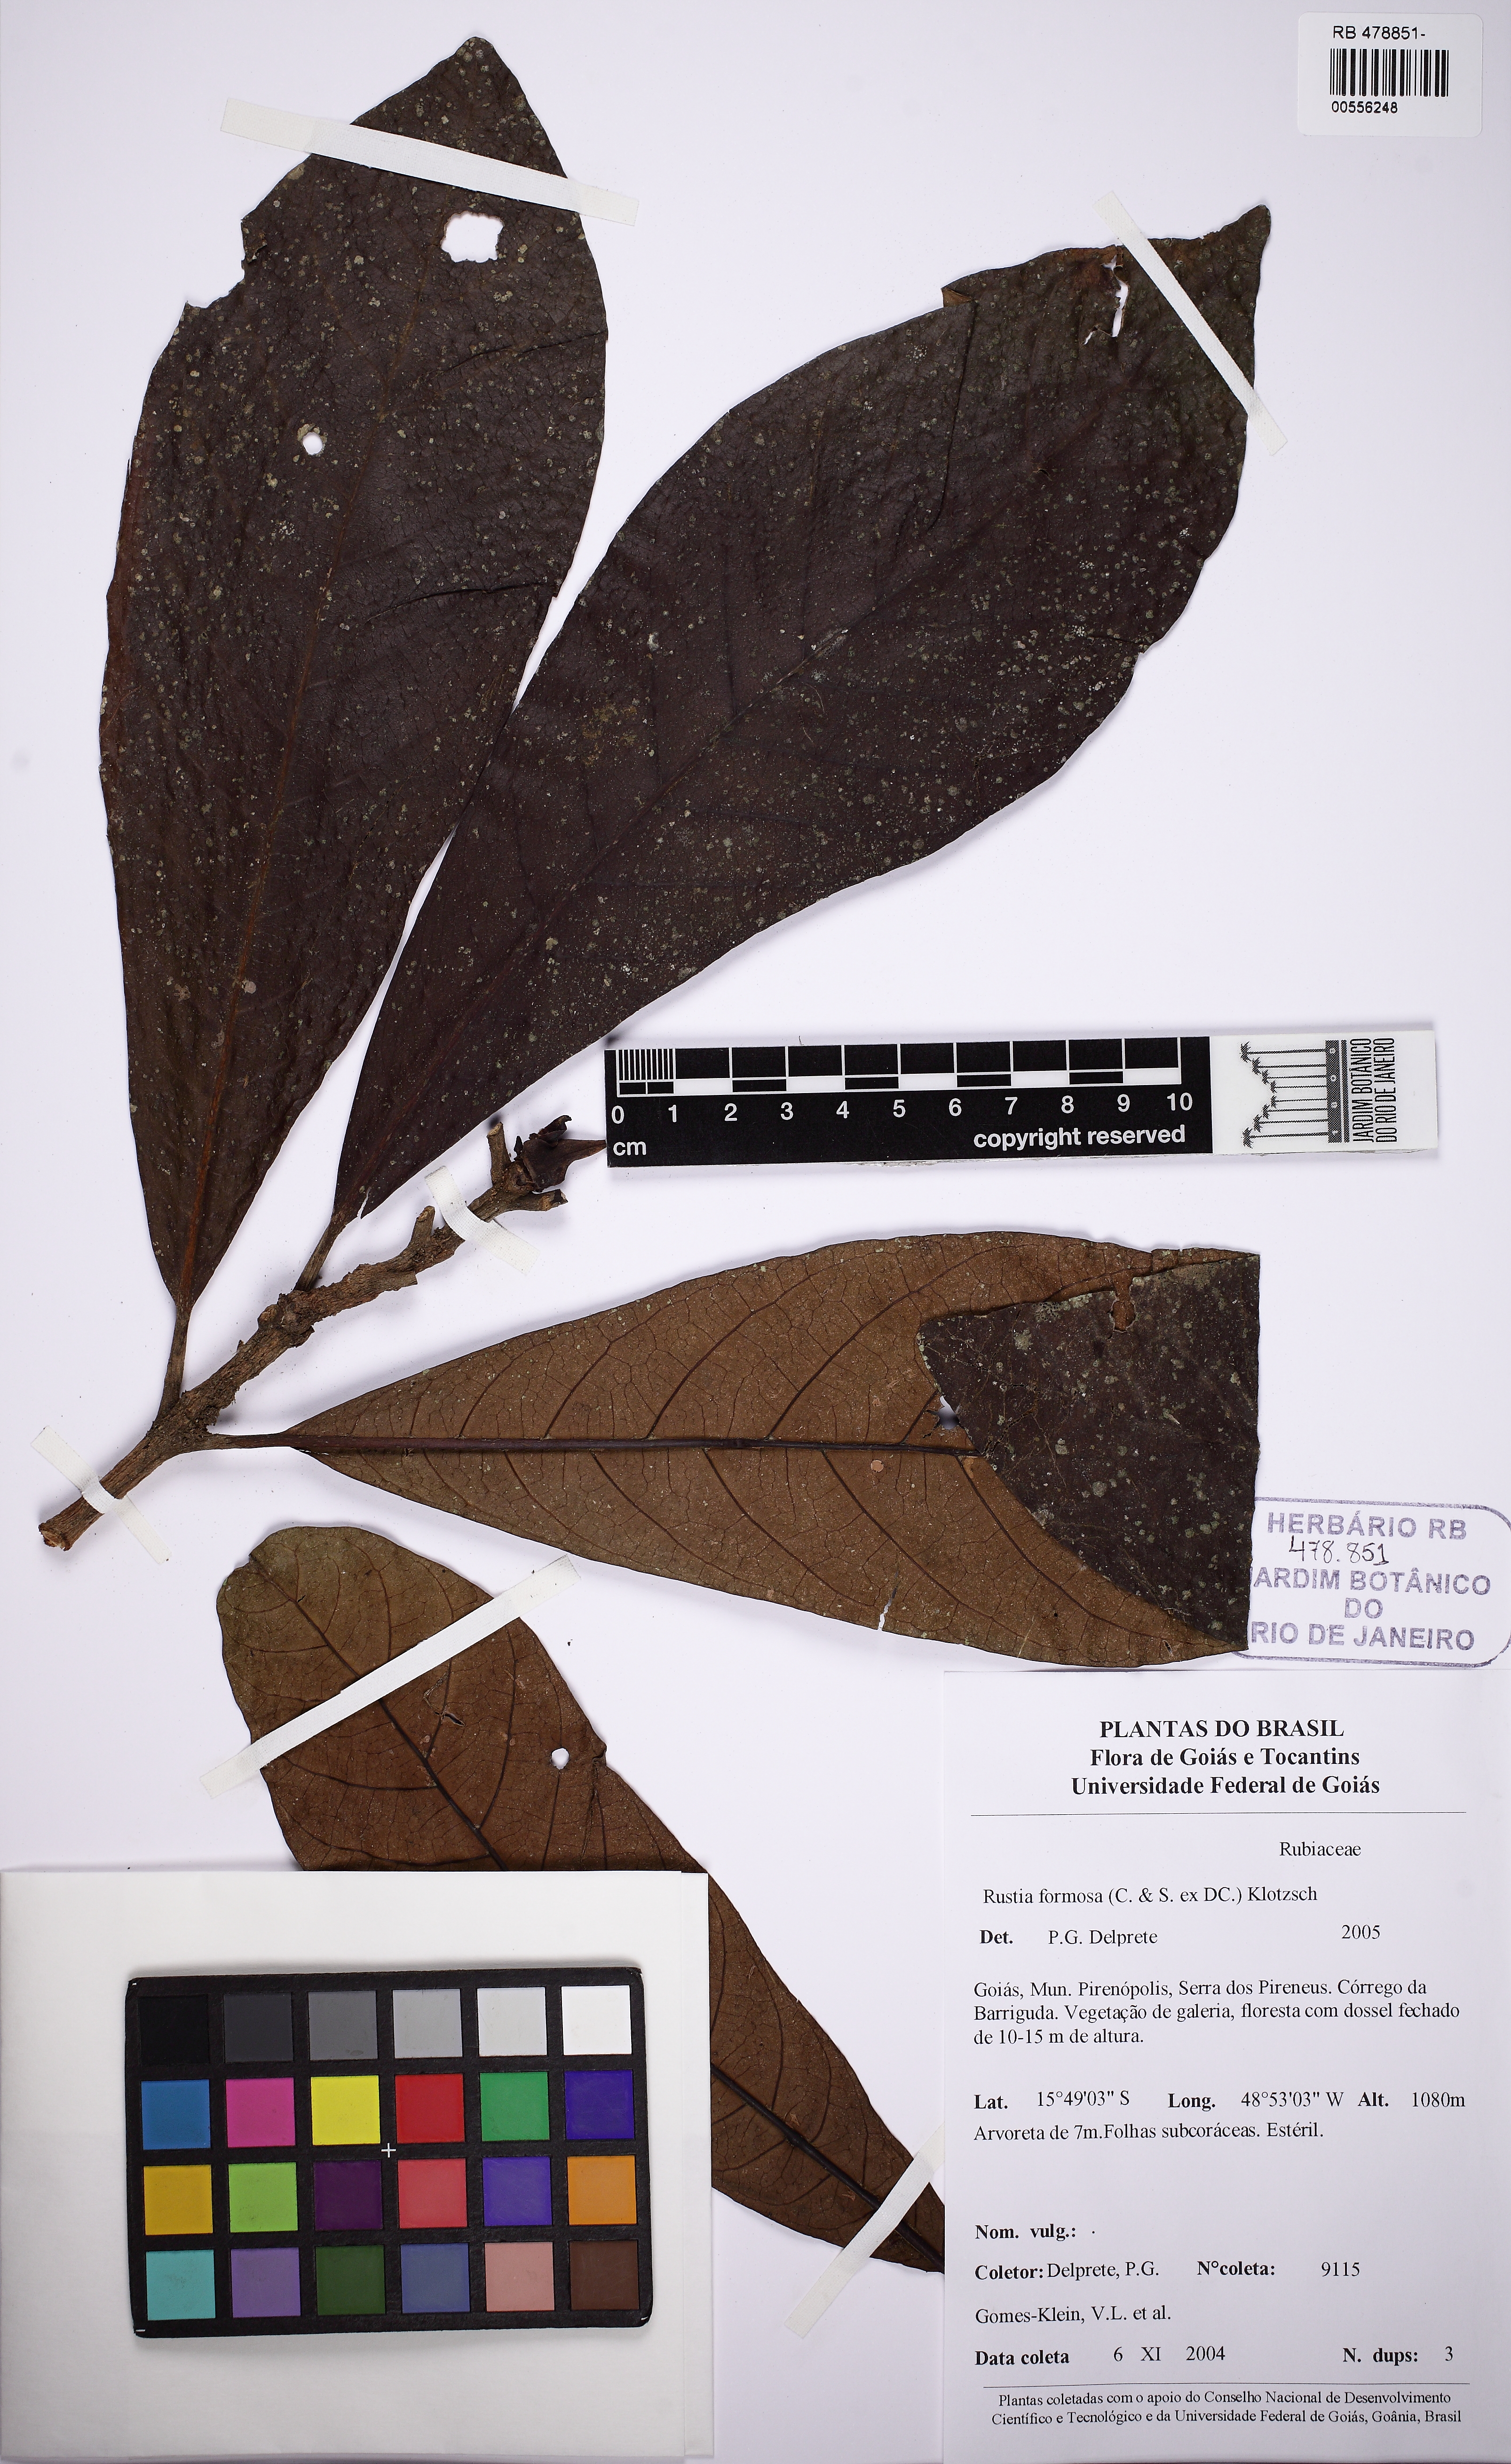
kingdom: Plantae
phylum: Tracheophyta
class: Magnoliopsida
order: Gentianales
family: Rubiaceae
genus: Rustia
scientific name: Rustia formosa
